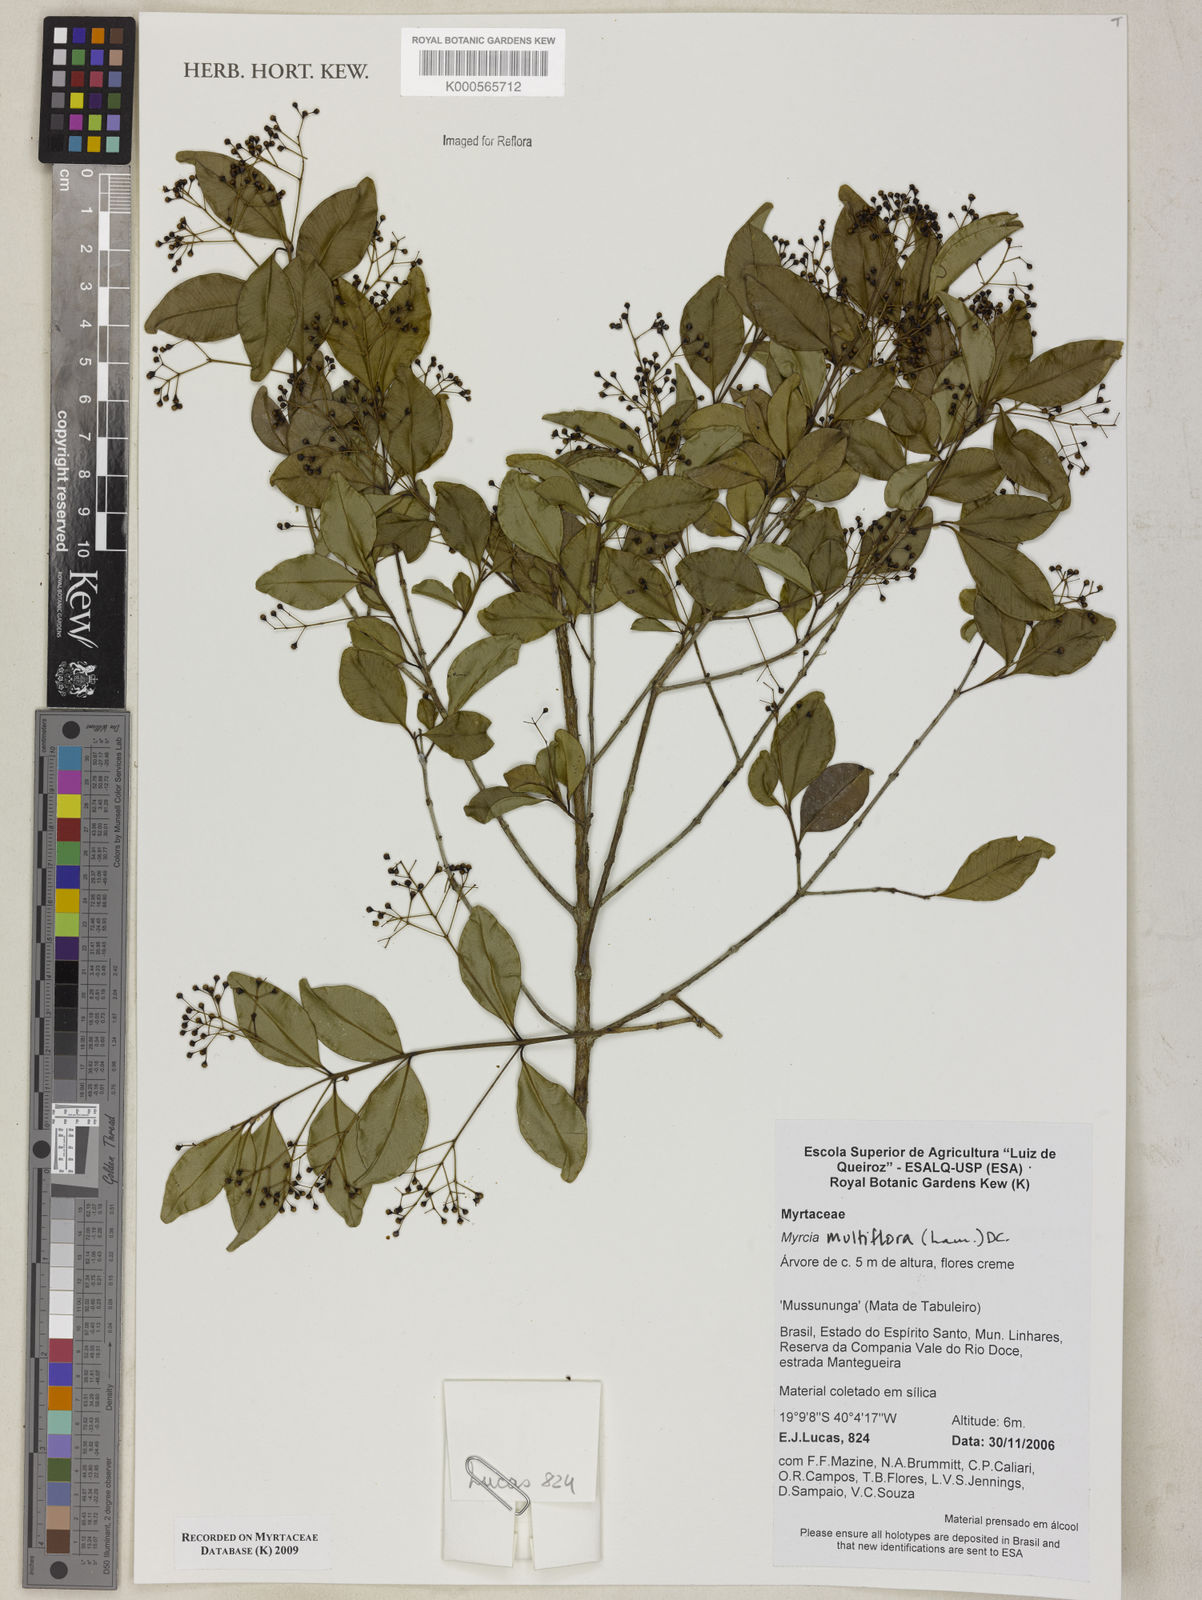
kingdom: Plantae
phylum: Tracheophyta
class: Magnoliopsida
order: Myrtales
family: Myrtaceae
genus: Myrcia
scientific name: Myrcia multiflora
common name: Pedra hume
